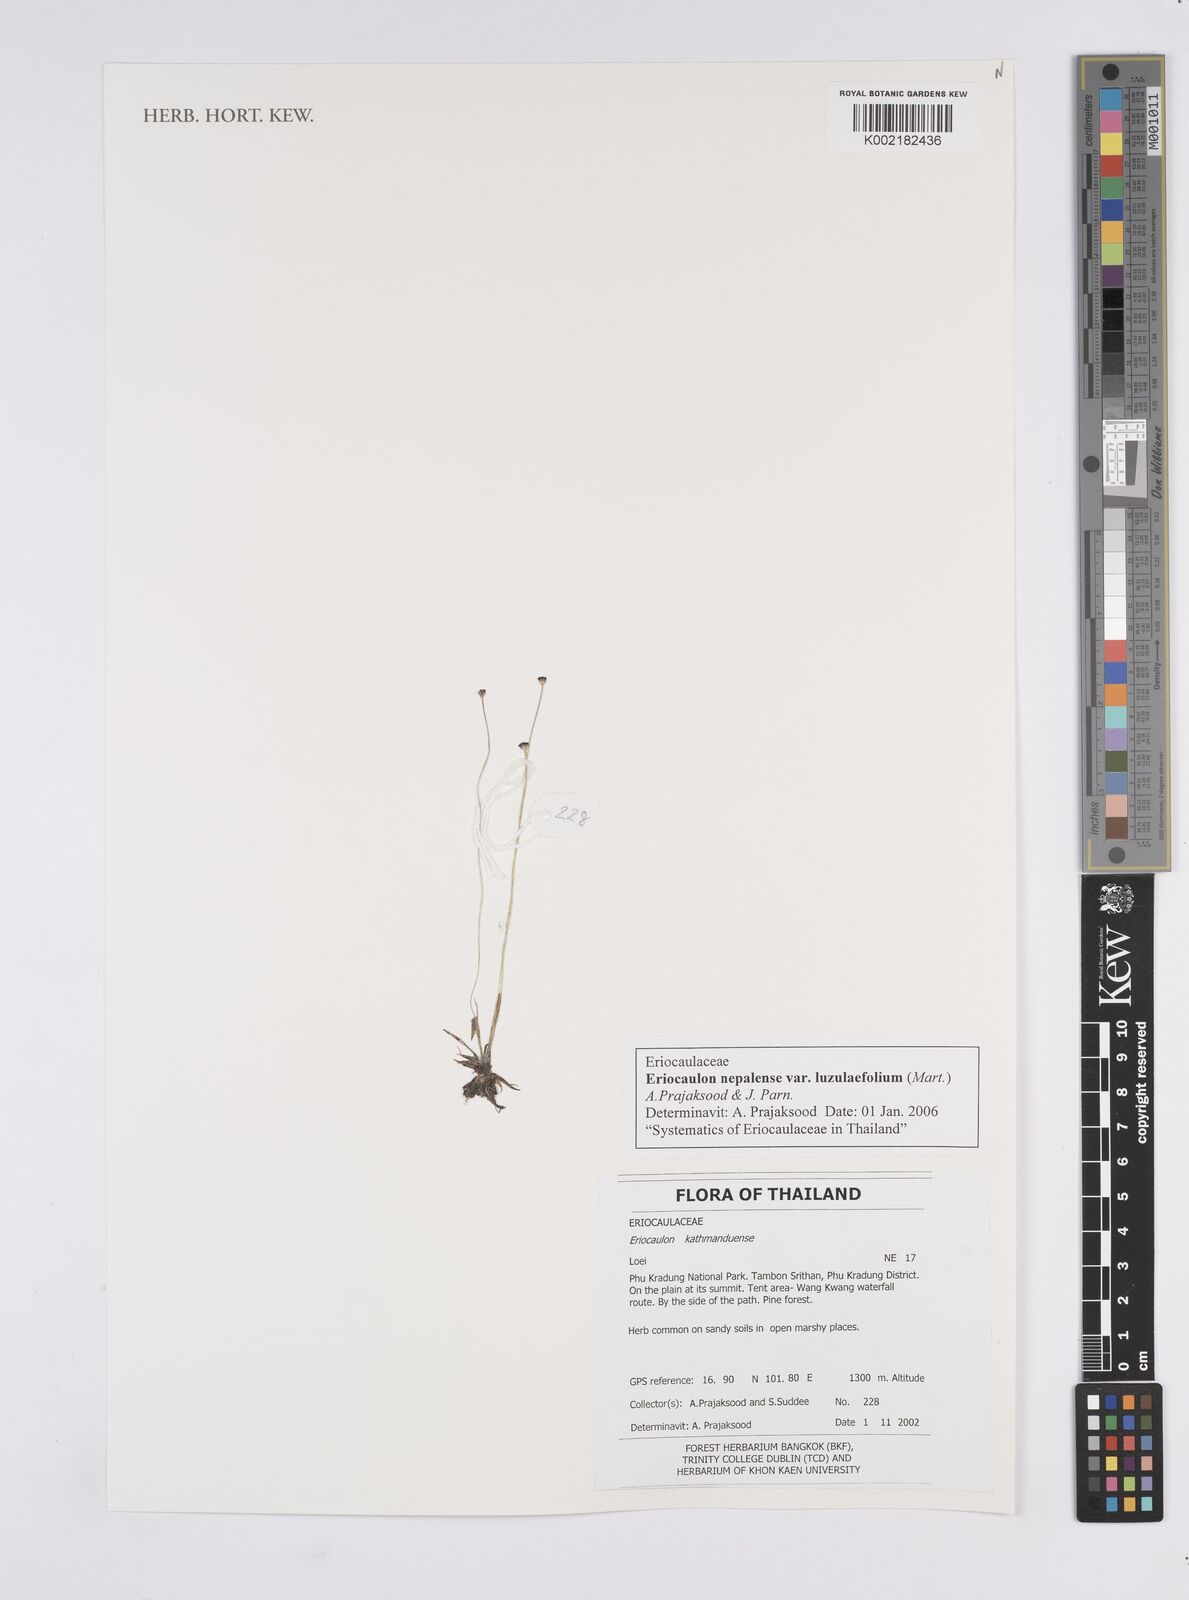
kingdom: Plantae
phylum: Tracheophyta
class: Liliopsida
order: Poales
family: Eriocaulaceae
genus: Eriocaulon
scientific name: Eriocaulon nepalense
